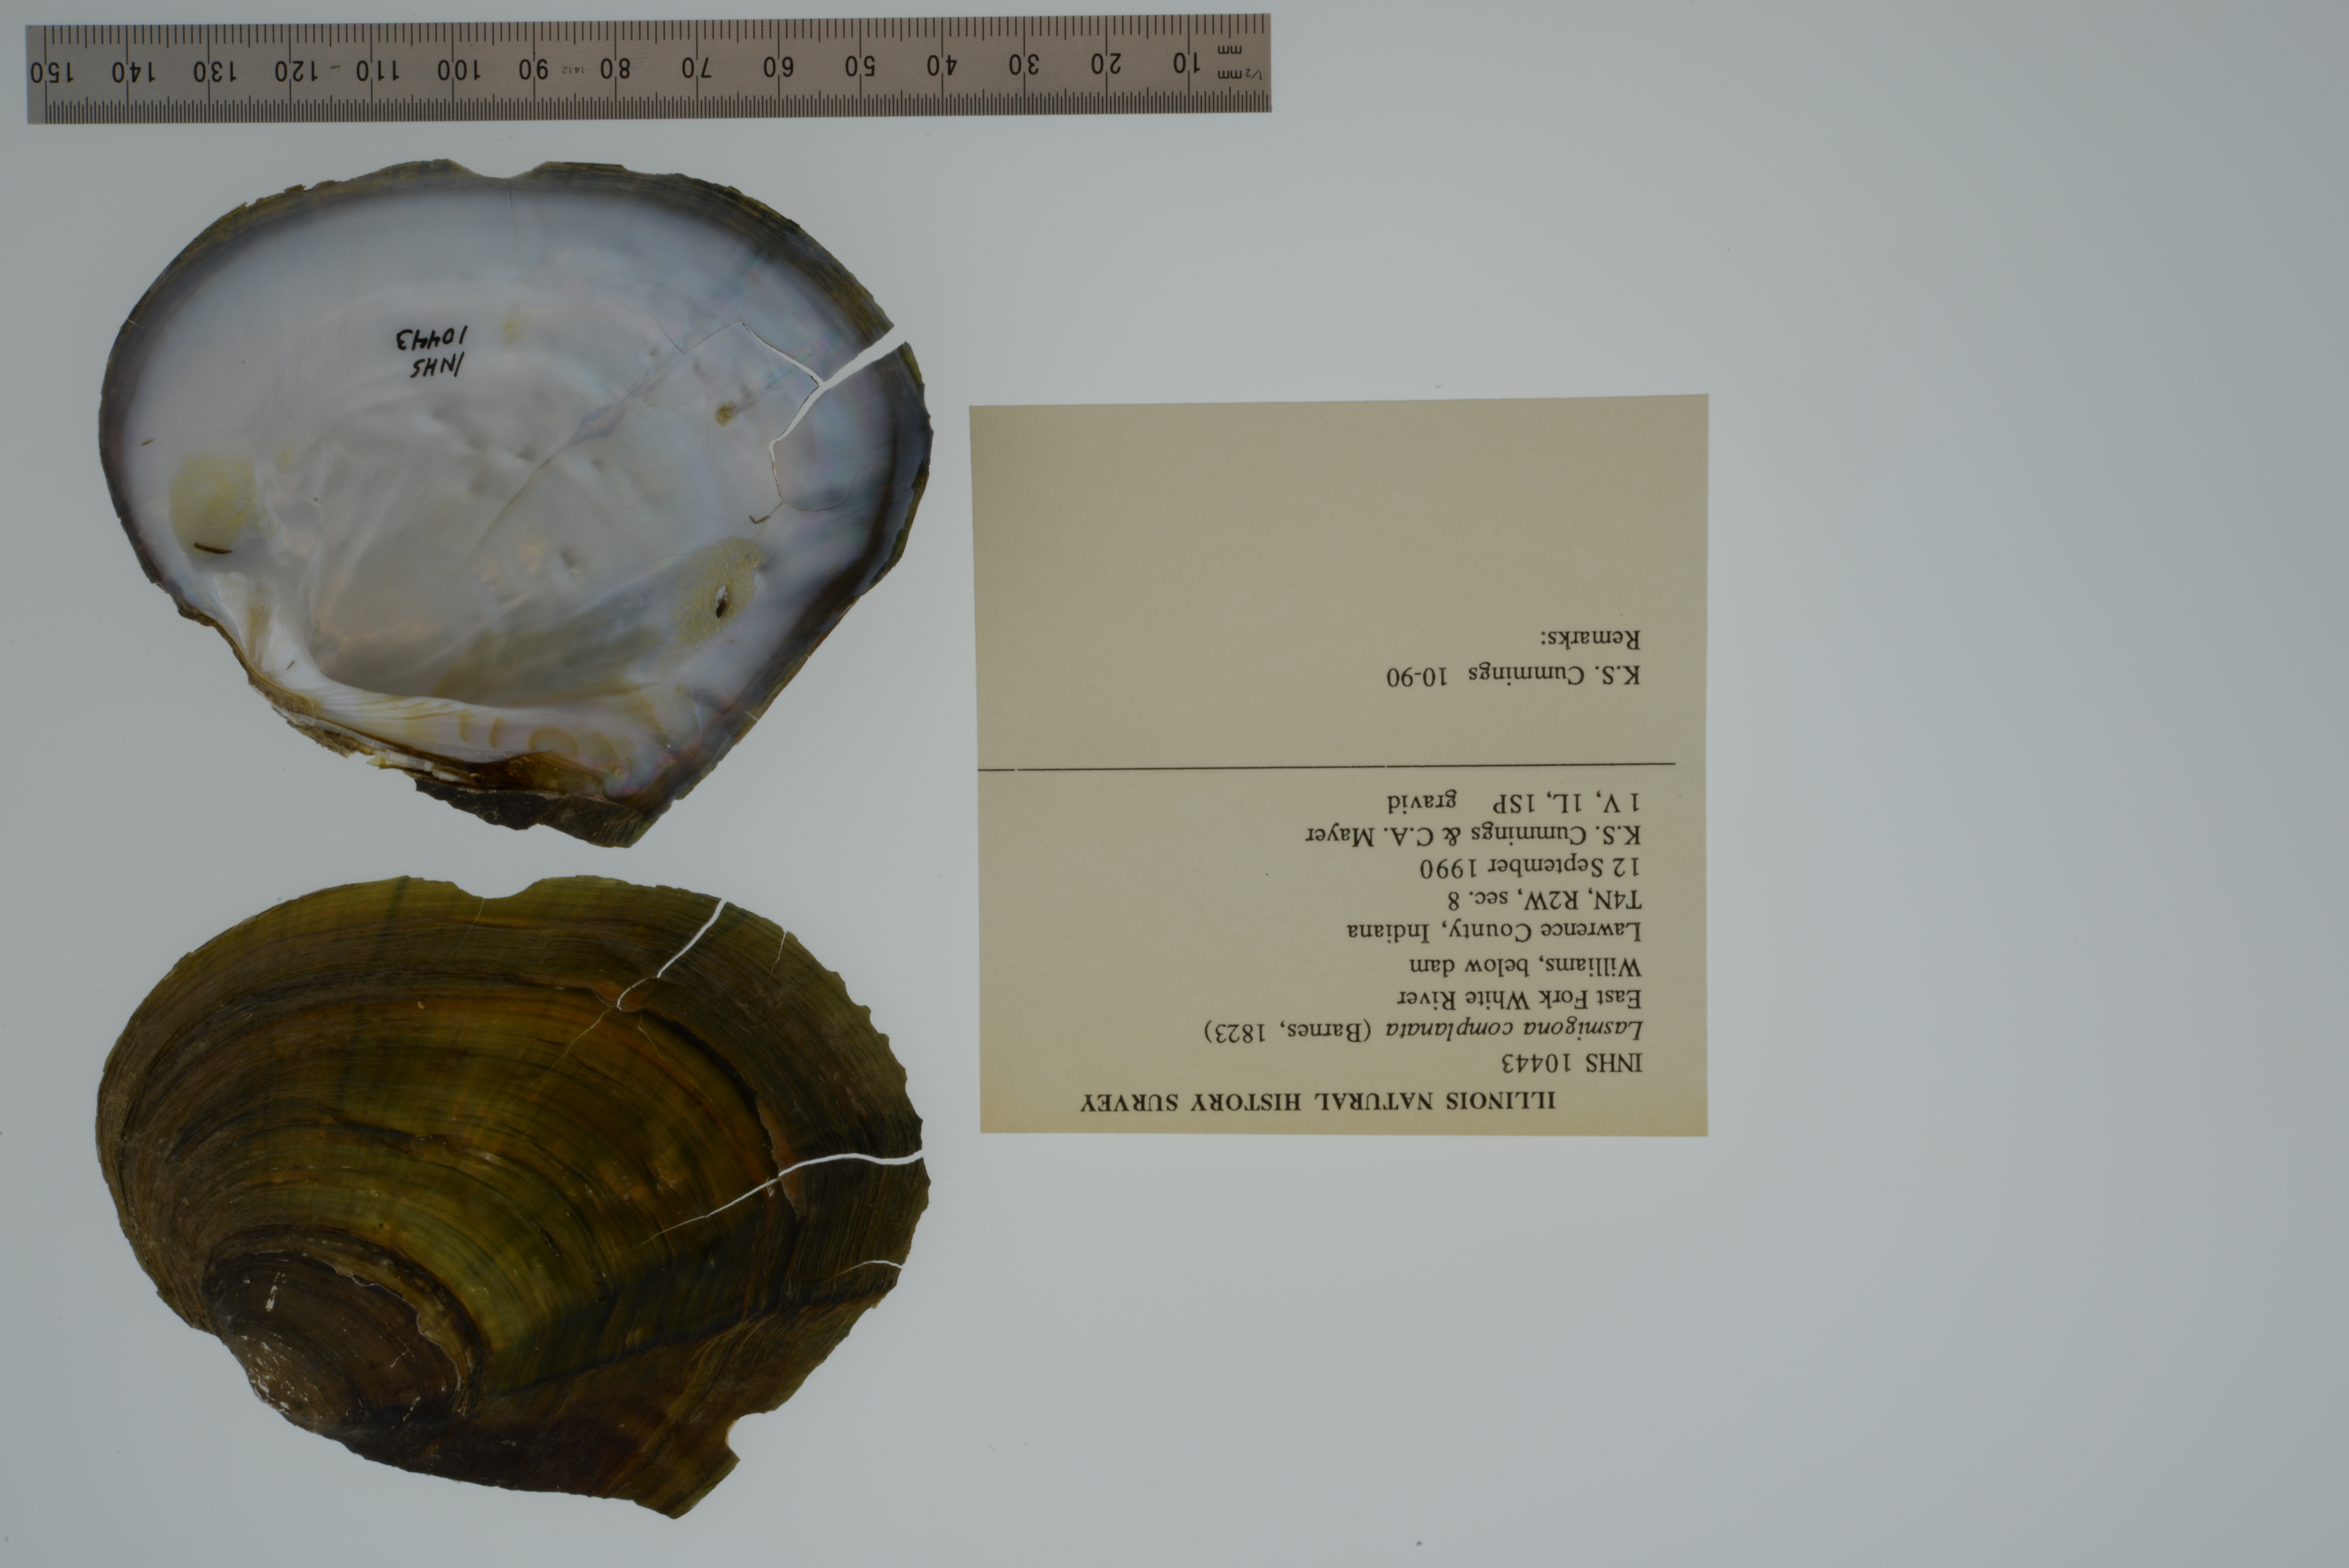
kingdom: Animalia
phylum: Mollusca
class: Bivalvia
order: Unionida
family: Unionidae
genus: Lasmigona
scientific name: Lasmigona complanata
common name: White heelsplitter
